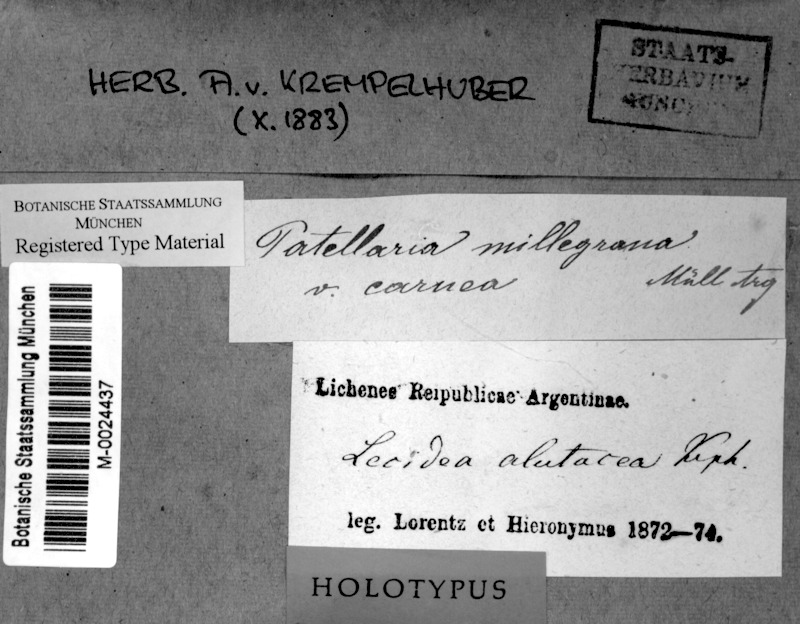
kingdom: Fungi
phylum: Ascomycota
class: Lecanoromycetes
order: Lecanorales
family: Ramalinaceae
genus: Bacidia
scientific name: Bacidia alutacea
